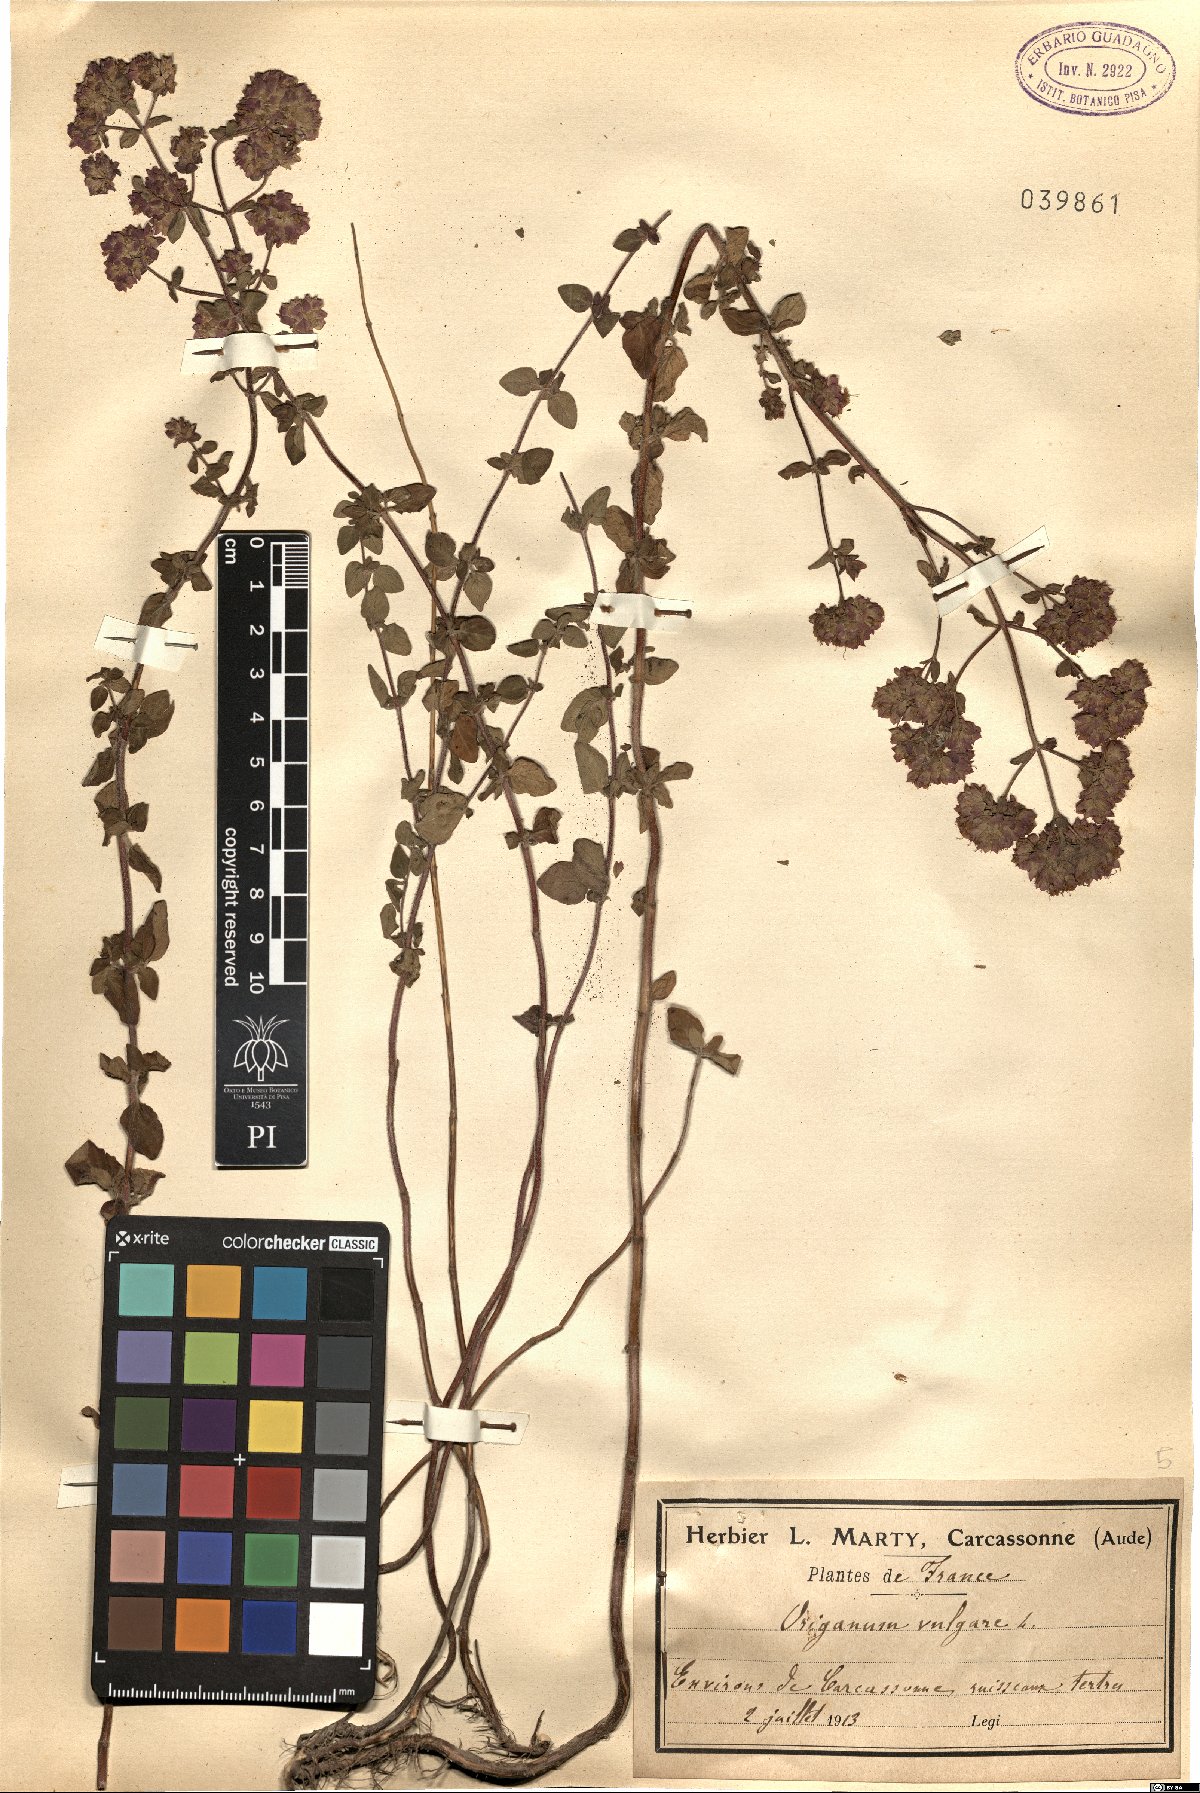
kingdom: Plantae
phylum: Tracheophyta
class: Magnoliopsida
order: Lamiales
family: Lamiaceae
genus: Origanum
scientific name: Origanum vulgare
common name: Wild marjoram
